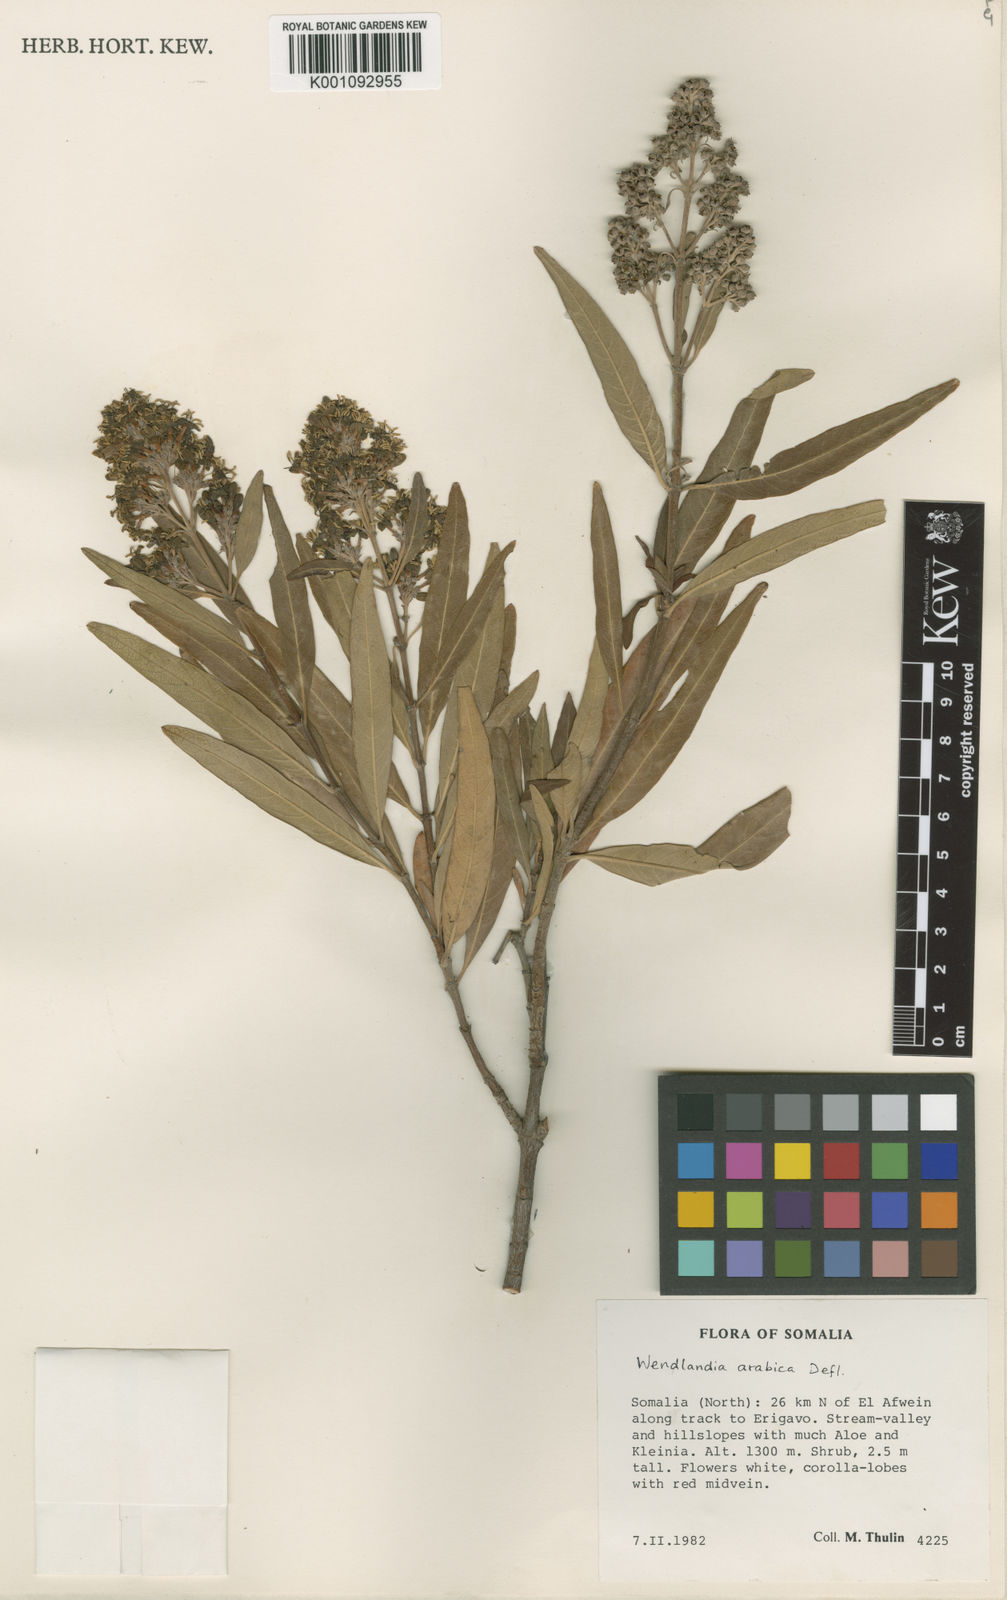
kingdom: Plantae
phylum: Tracheophyta
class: Magnoliopsida
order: Gentianales
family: Rubiaceae
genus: Wendlandia
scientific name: Wendlandia arabica
